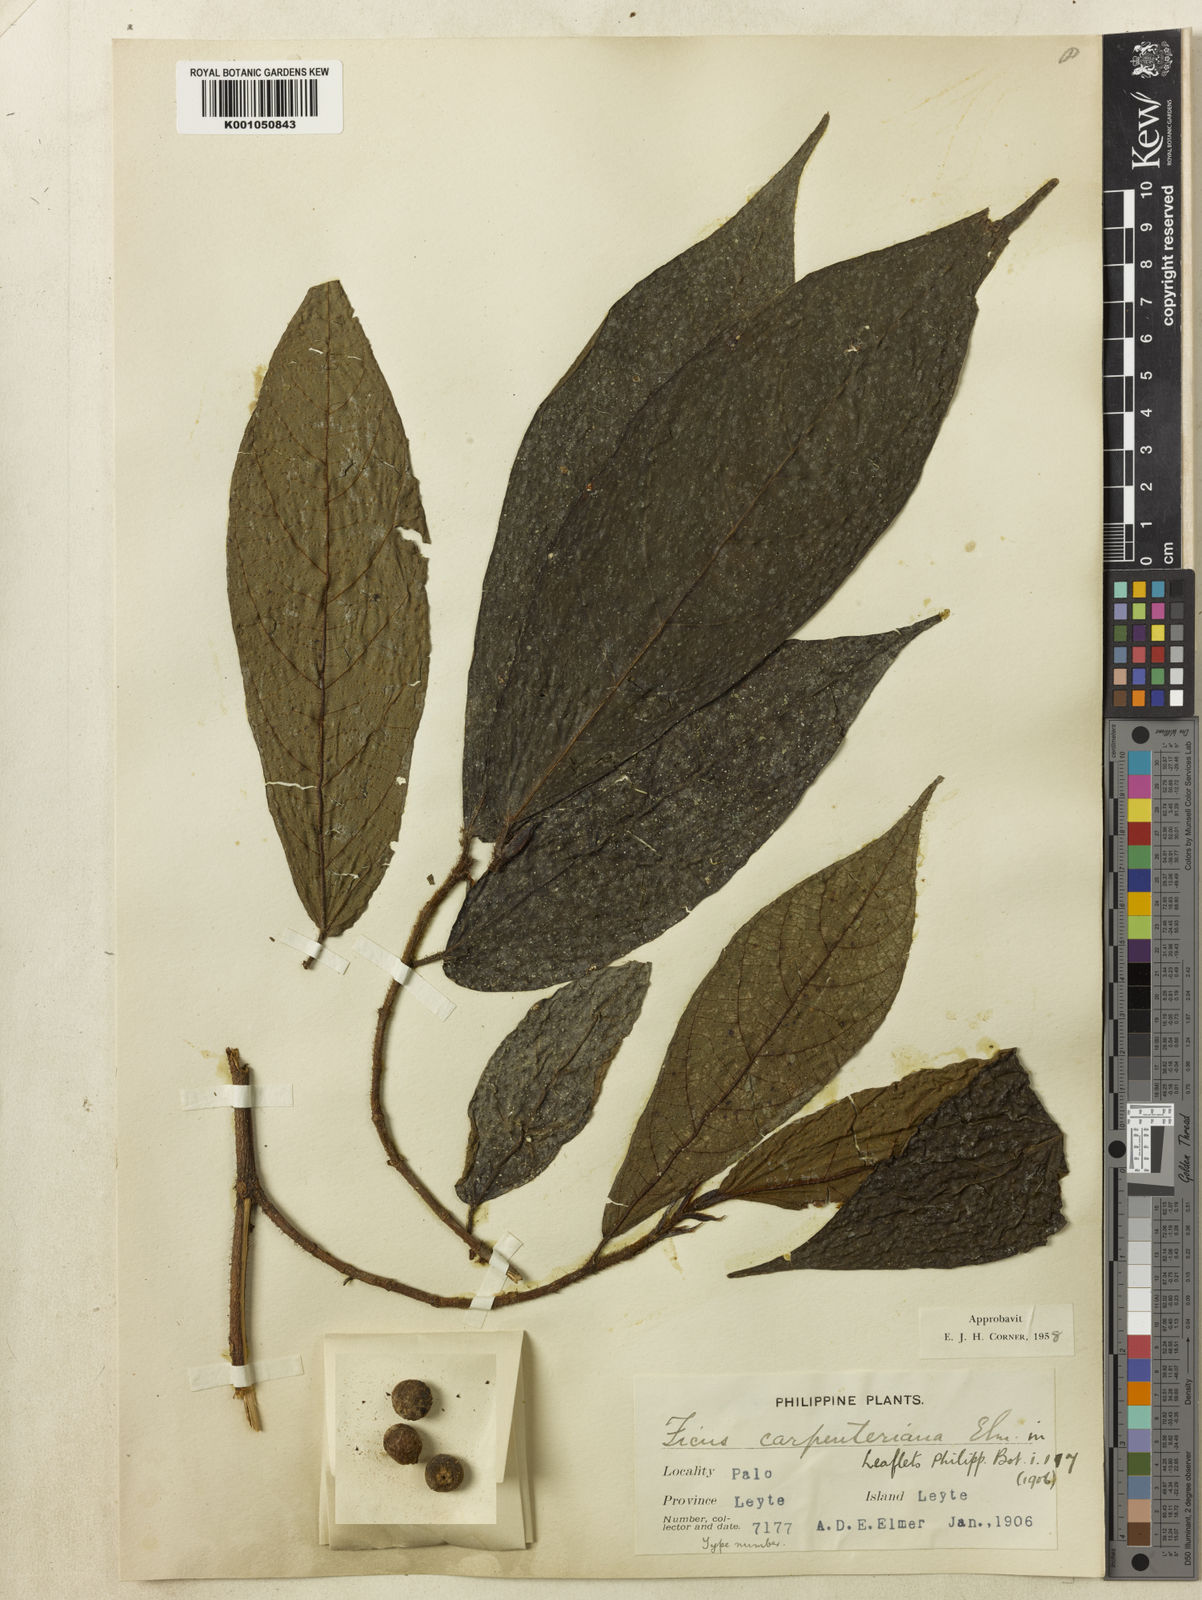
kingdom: Plantae
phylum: Tracheophyta
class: Magnoliopsida
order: Rosales
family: Moraceae
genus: Ficus
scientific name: Ficus carpenteriana
